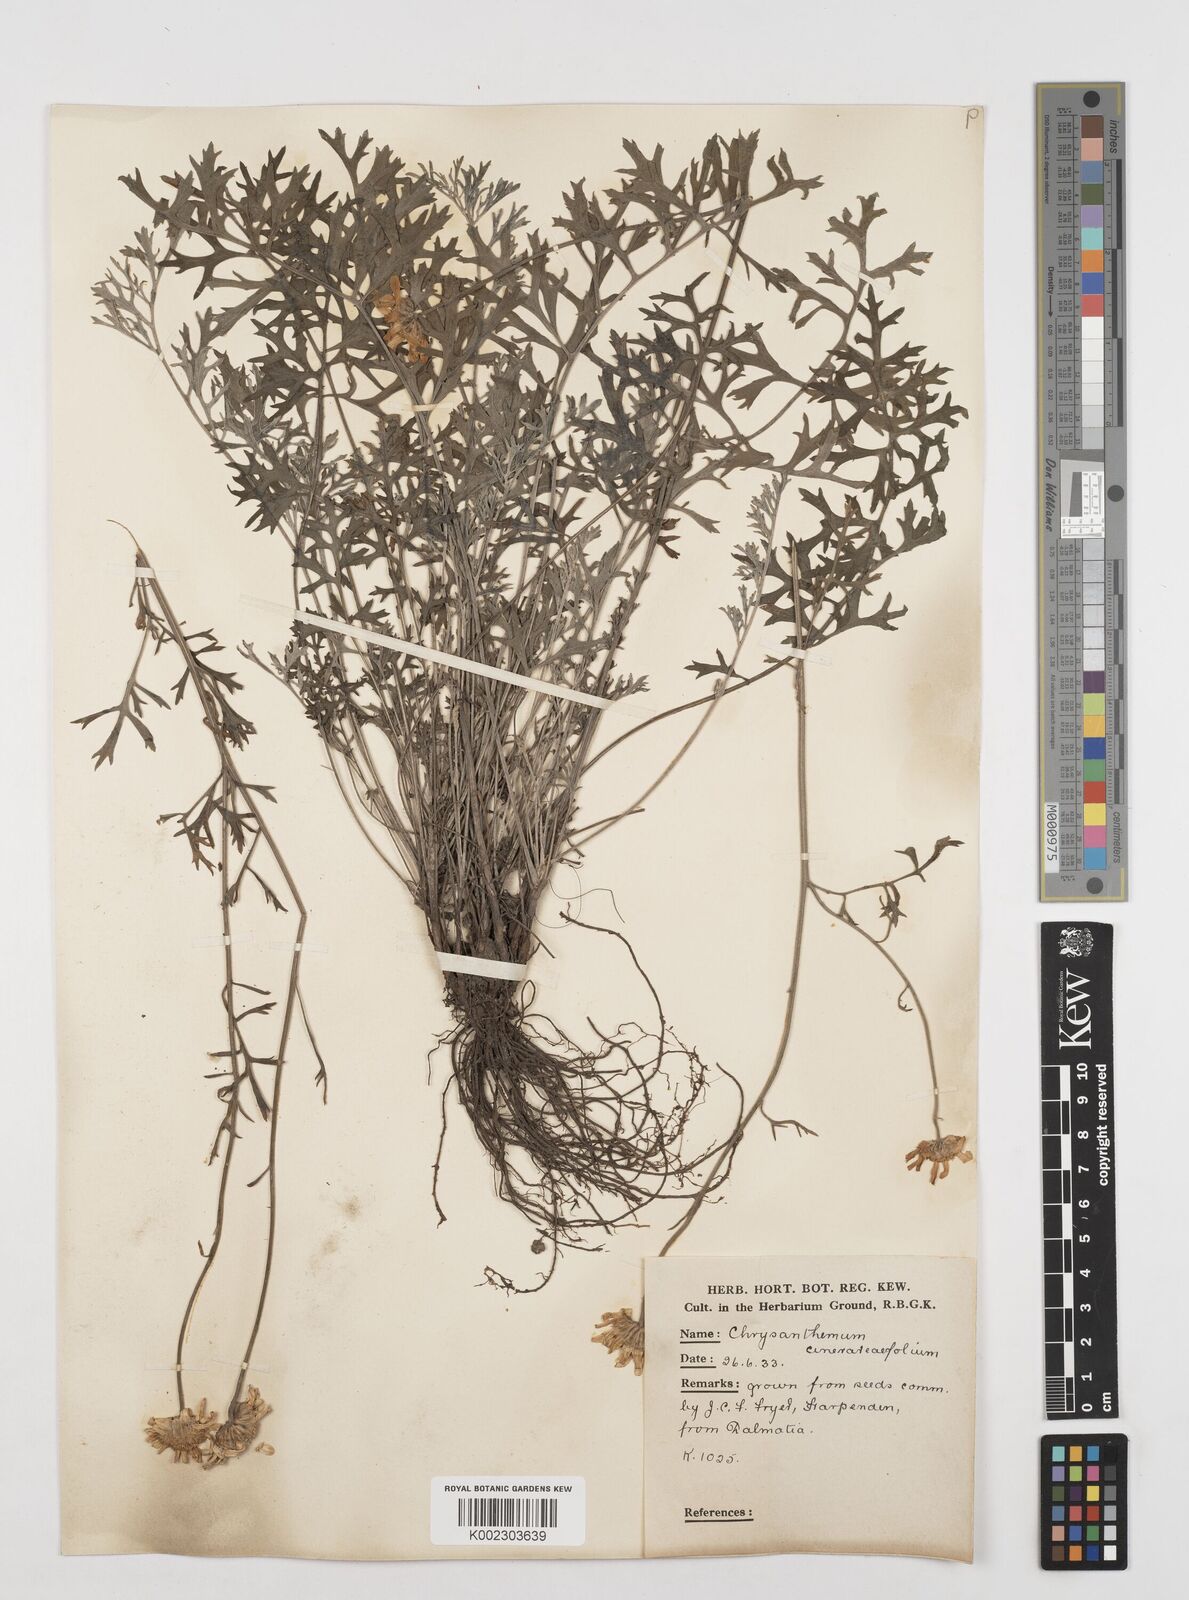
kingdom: Plantae
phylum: Tracheophyta
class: Magnoliopsida
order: Asterales
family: Asteraceae
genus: Tanacetum
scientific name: Tanacetum cinerariifolium
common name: Dalmatian pyrethrum
